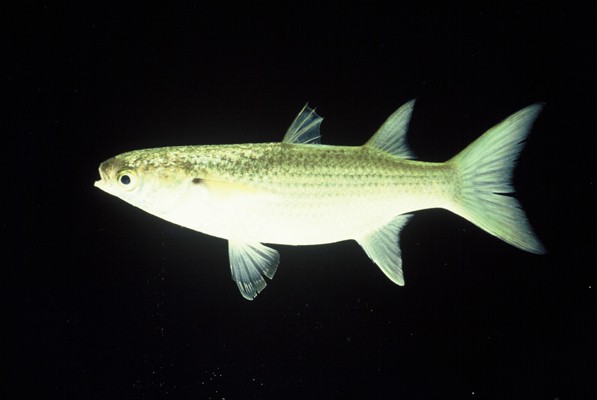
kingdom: Animalia
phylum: Chordata
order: Mugiliformes
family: Mugilidae
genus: Crenimugil
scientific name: Crenimugil buchanani
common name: Bluetail mullet
